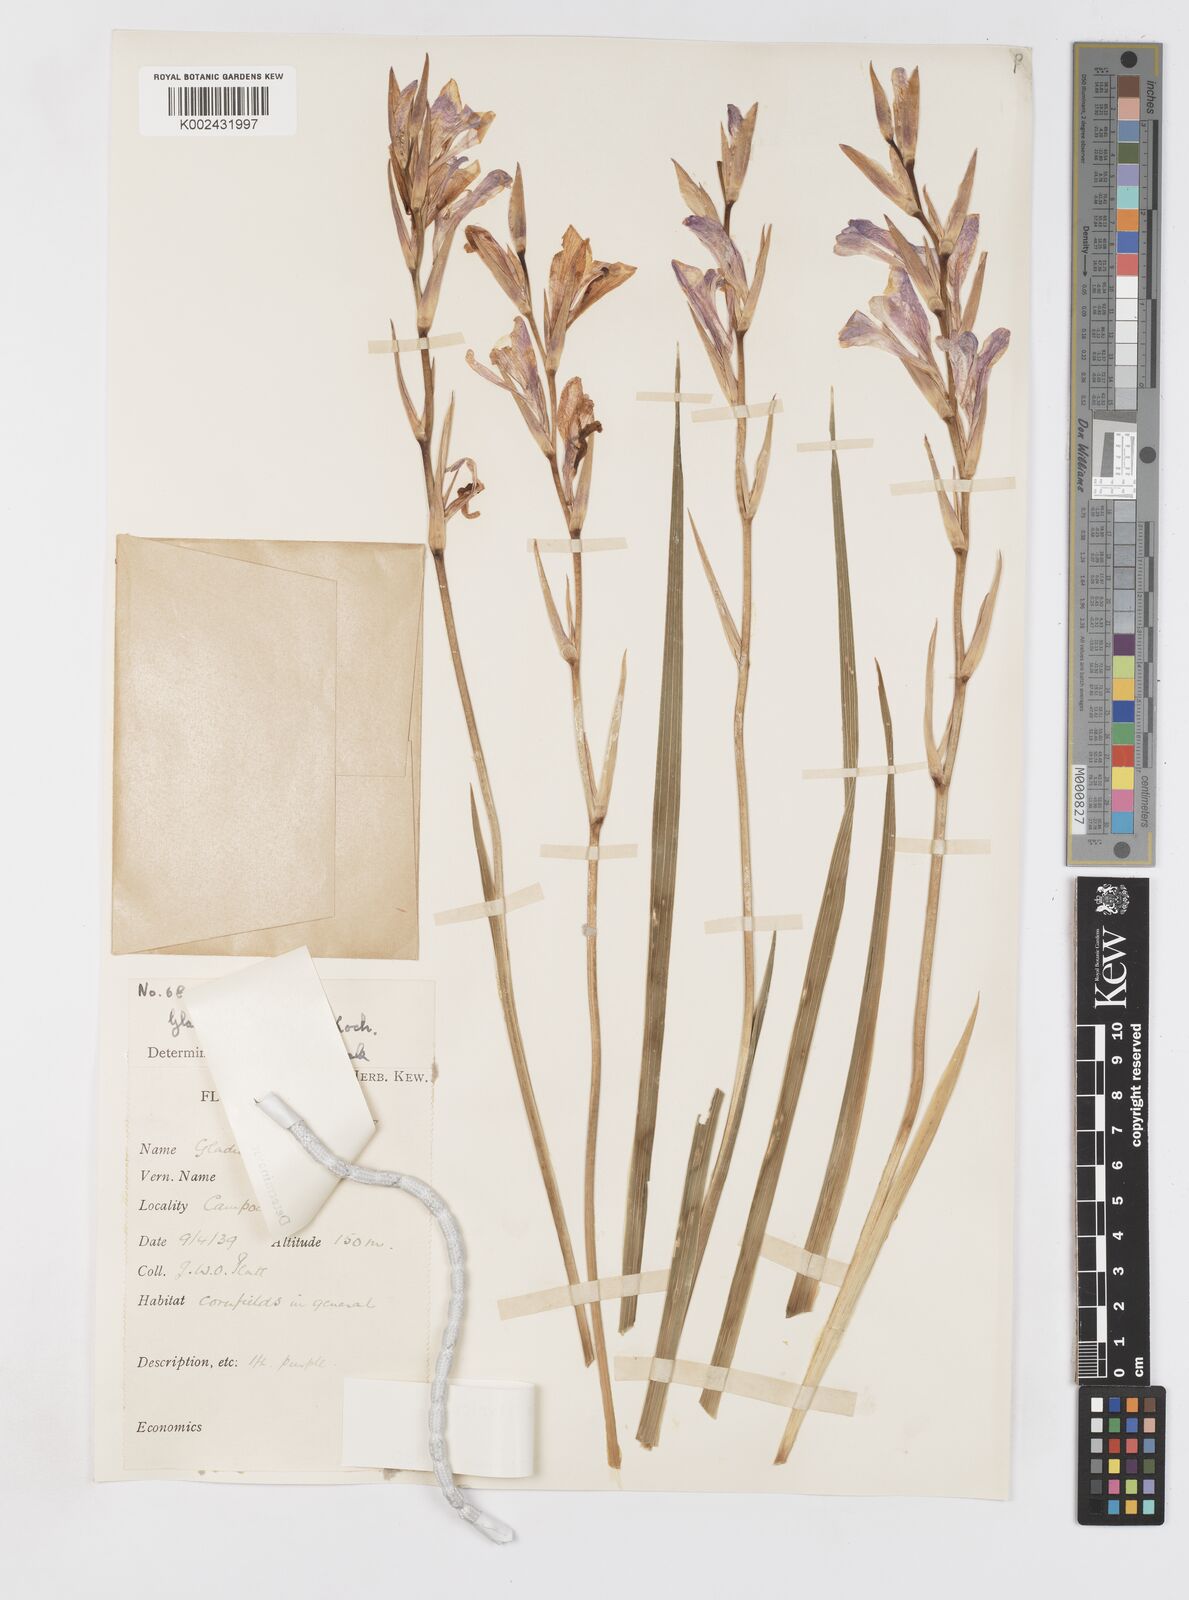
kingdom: Plantae
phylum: Tracheophyta
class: Liliopsida
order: Asparagales
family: Iridaceae
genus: Gladiolus
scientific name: Gladiolus illyricus
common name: Wild gladiolus
